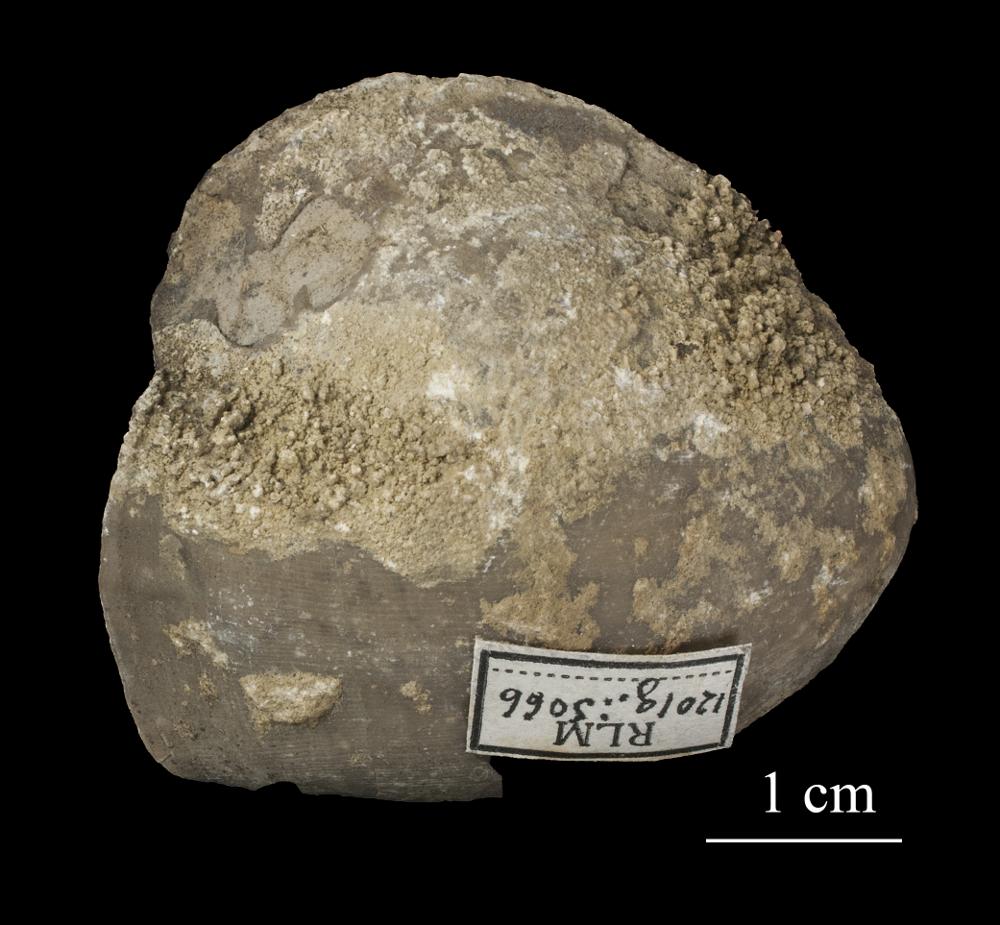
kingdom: Animalia
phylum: Brachiopoda
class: Rhynchonellata
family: Porambonitidae
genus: Porambonites
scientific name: Porambonites
